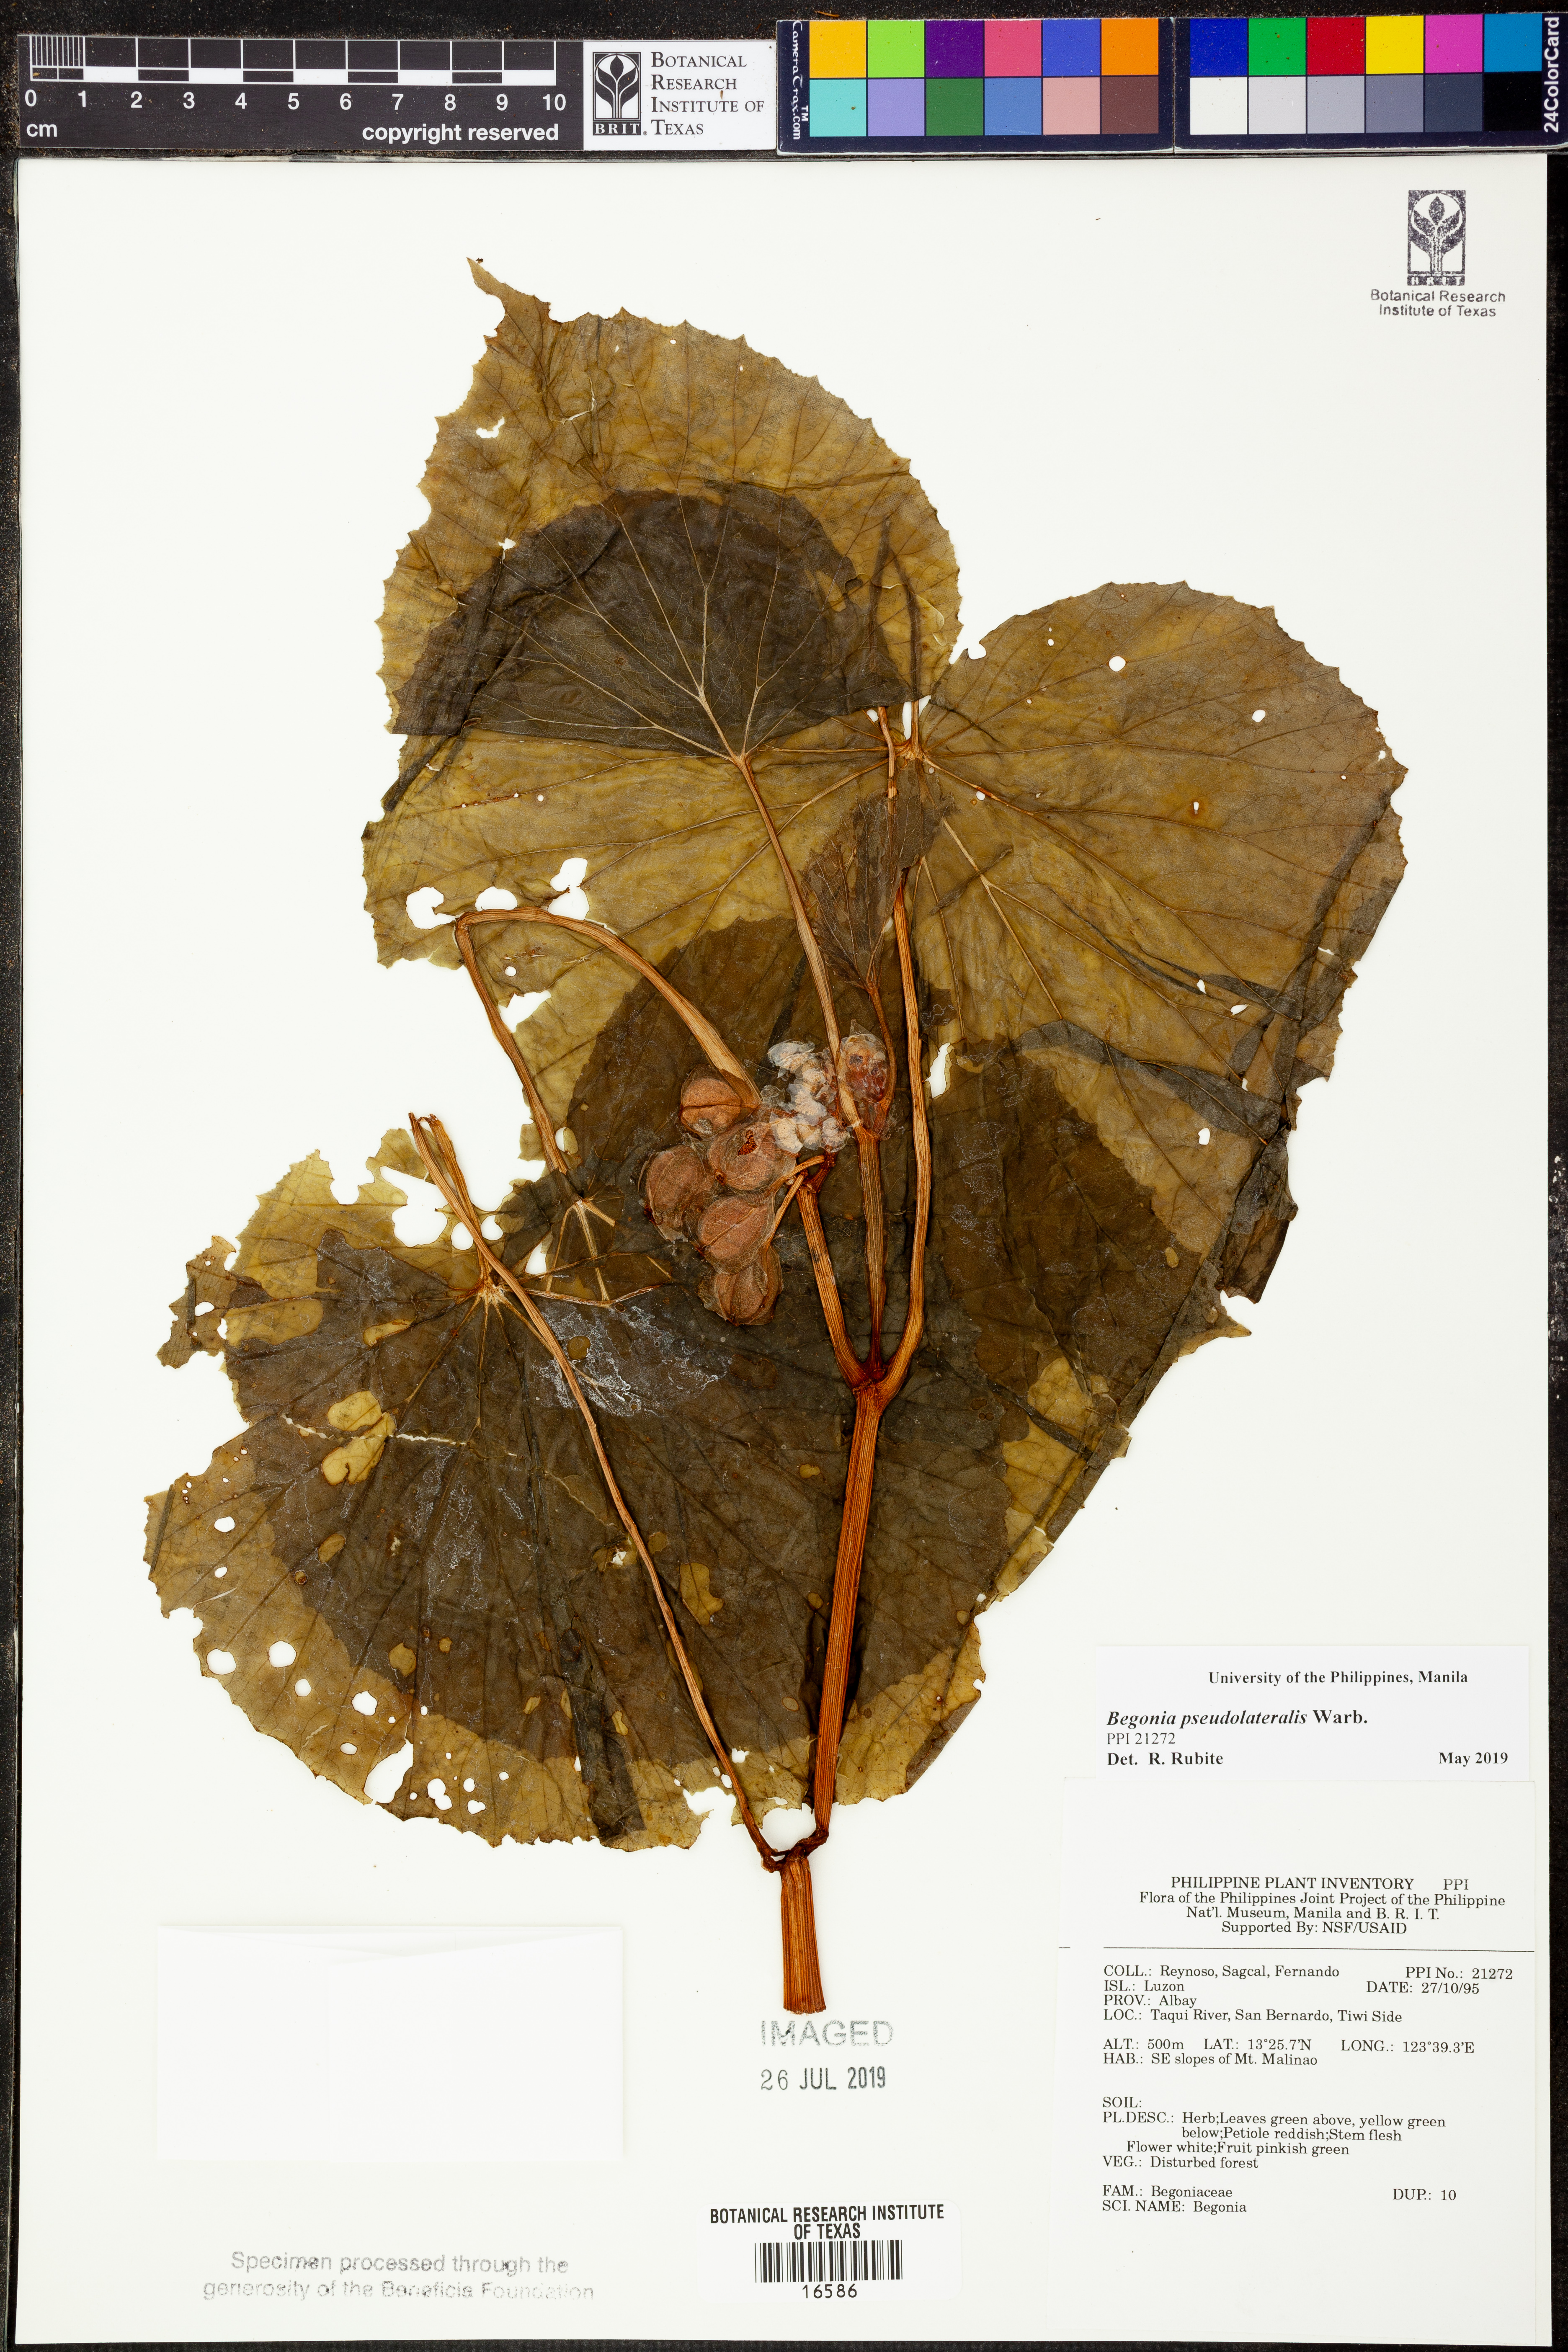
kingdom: Plantae
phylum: Tracheophyta
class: Magnoliopsida
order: Cucurbitales
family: Begoniaceae
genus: Begonia
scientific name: Begonia
